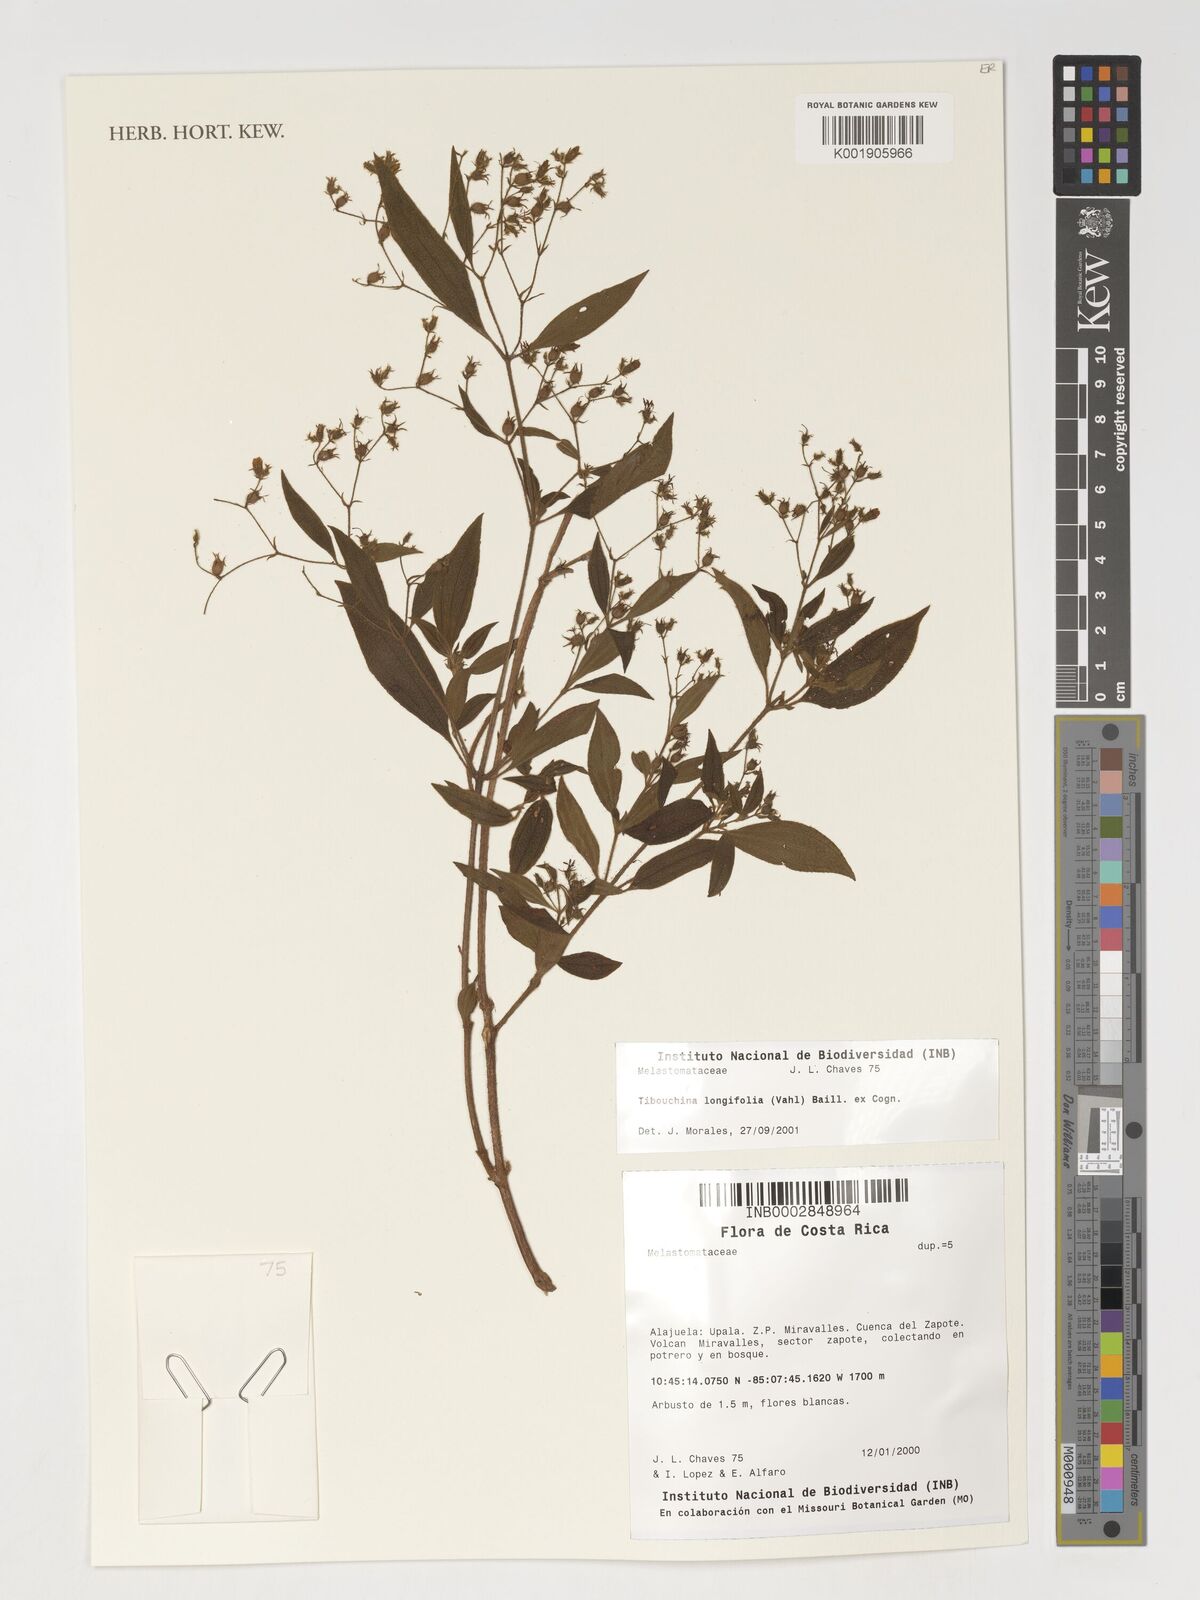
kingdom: Plantae
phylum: Tracheophyta
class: Magnoliopsida
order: Myrtales
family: Melastomataceae
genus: Chaetogastra
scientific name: Chaetogastra longifolia
